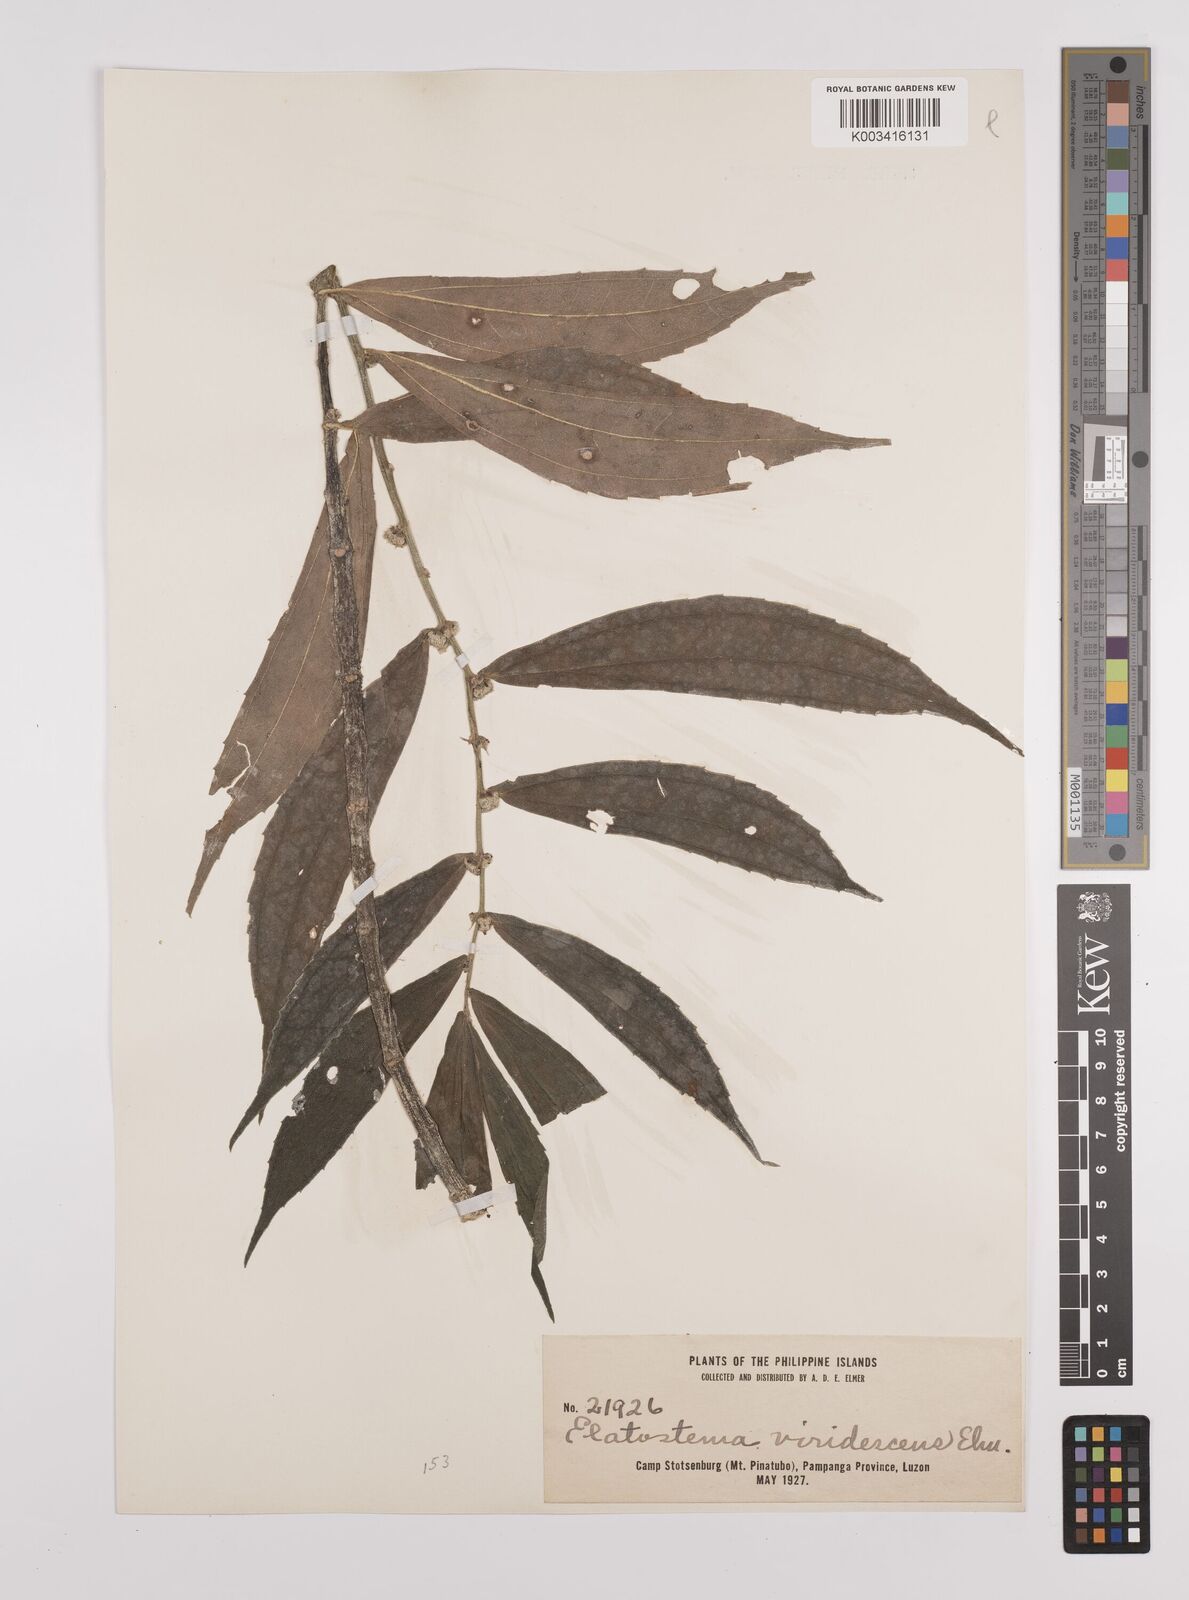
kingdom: Plantae
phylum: Tracheophyta
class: Magnoliopsida
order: Rosales
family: Urticaceae
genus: Elatostema
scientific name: Elatostema viridescens
